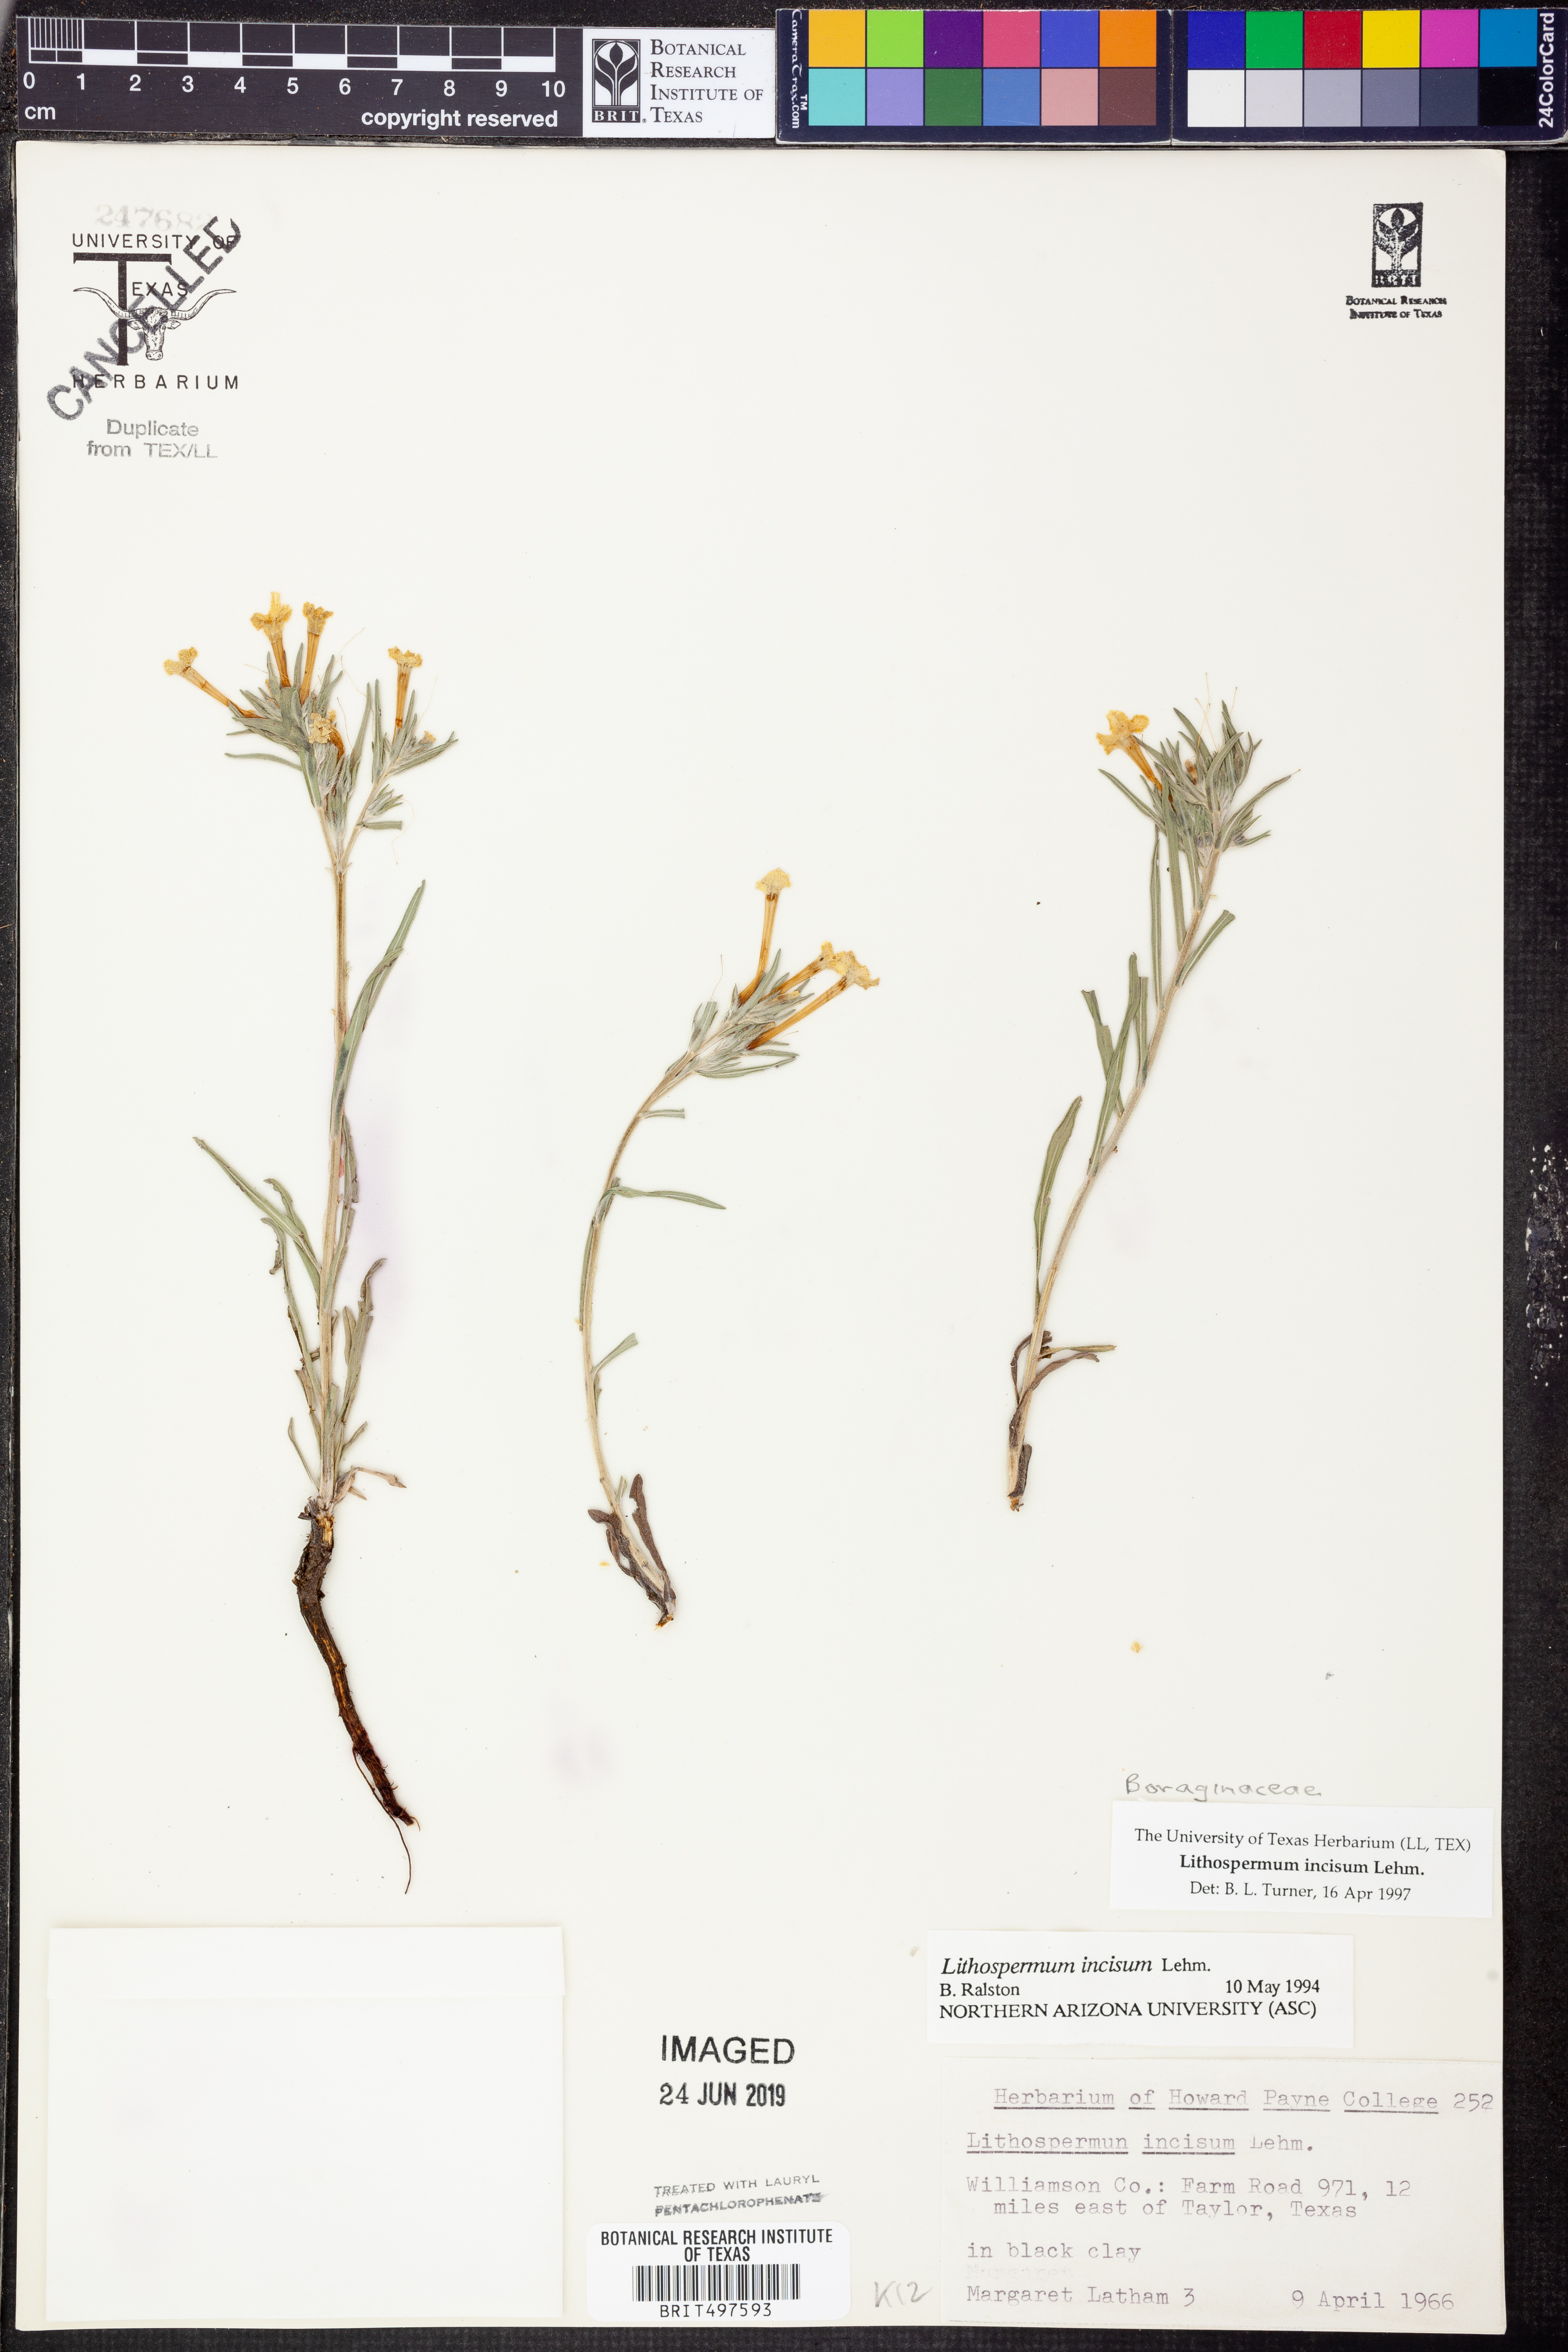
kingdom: Plantae
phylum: Tracheophyta
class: Magnoliopsida
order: Boraginales
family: Boraginaceae
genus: Lithospermum
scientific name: Lithospermum incisum
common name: Fringed gromwell
